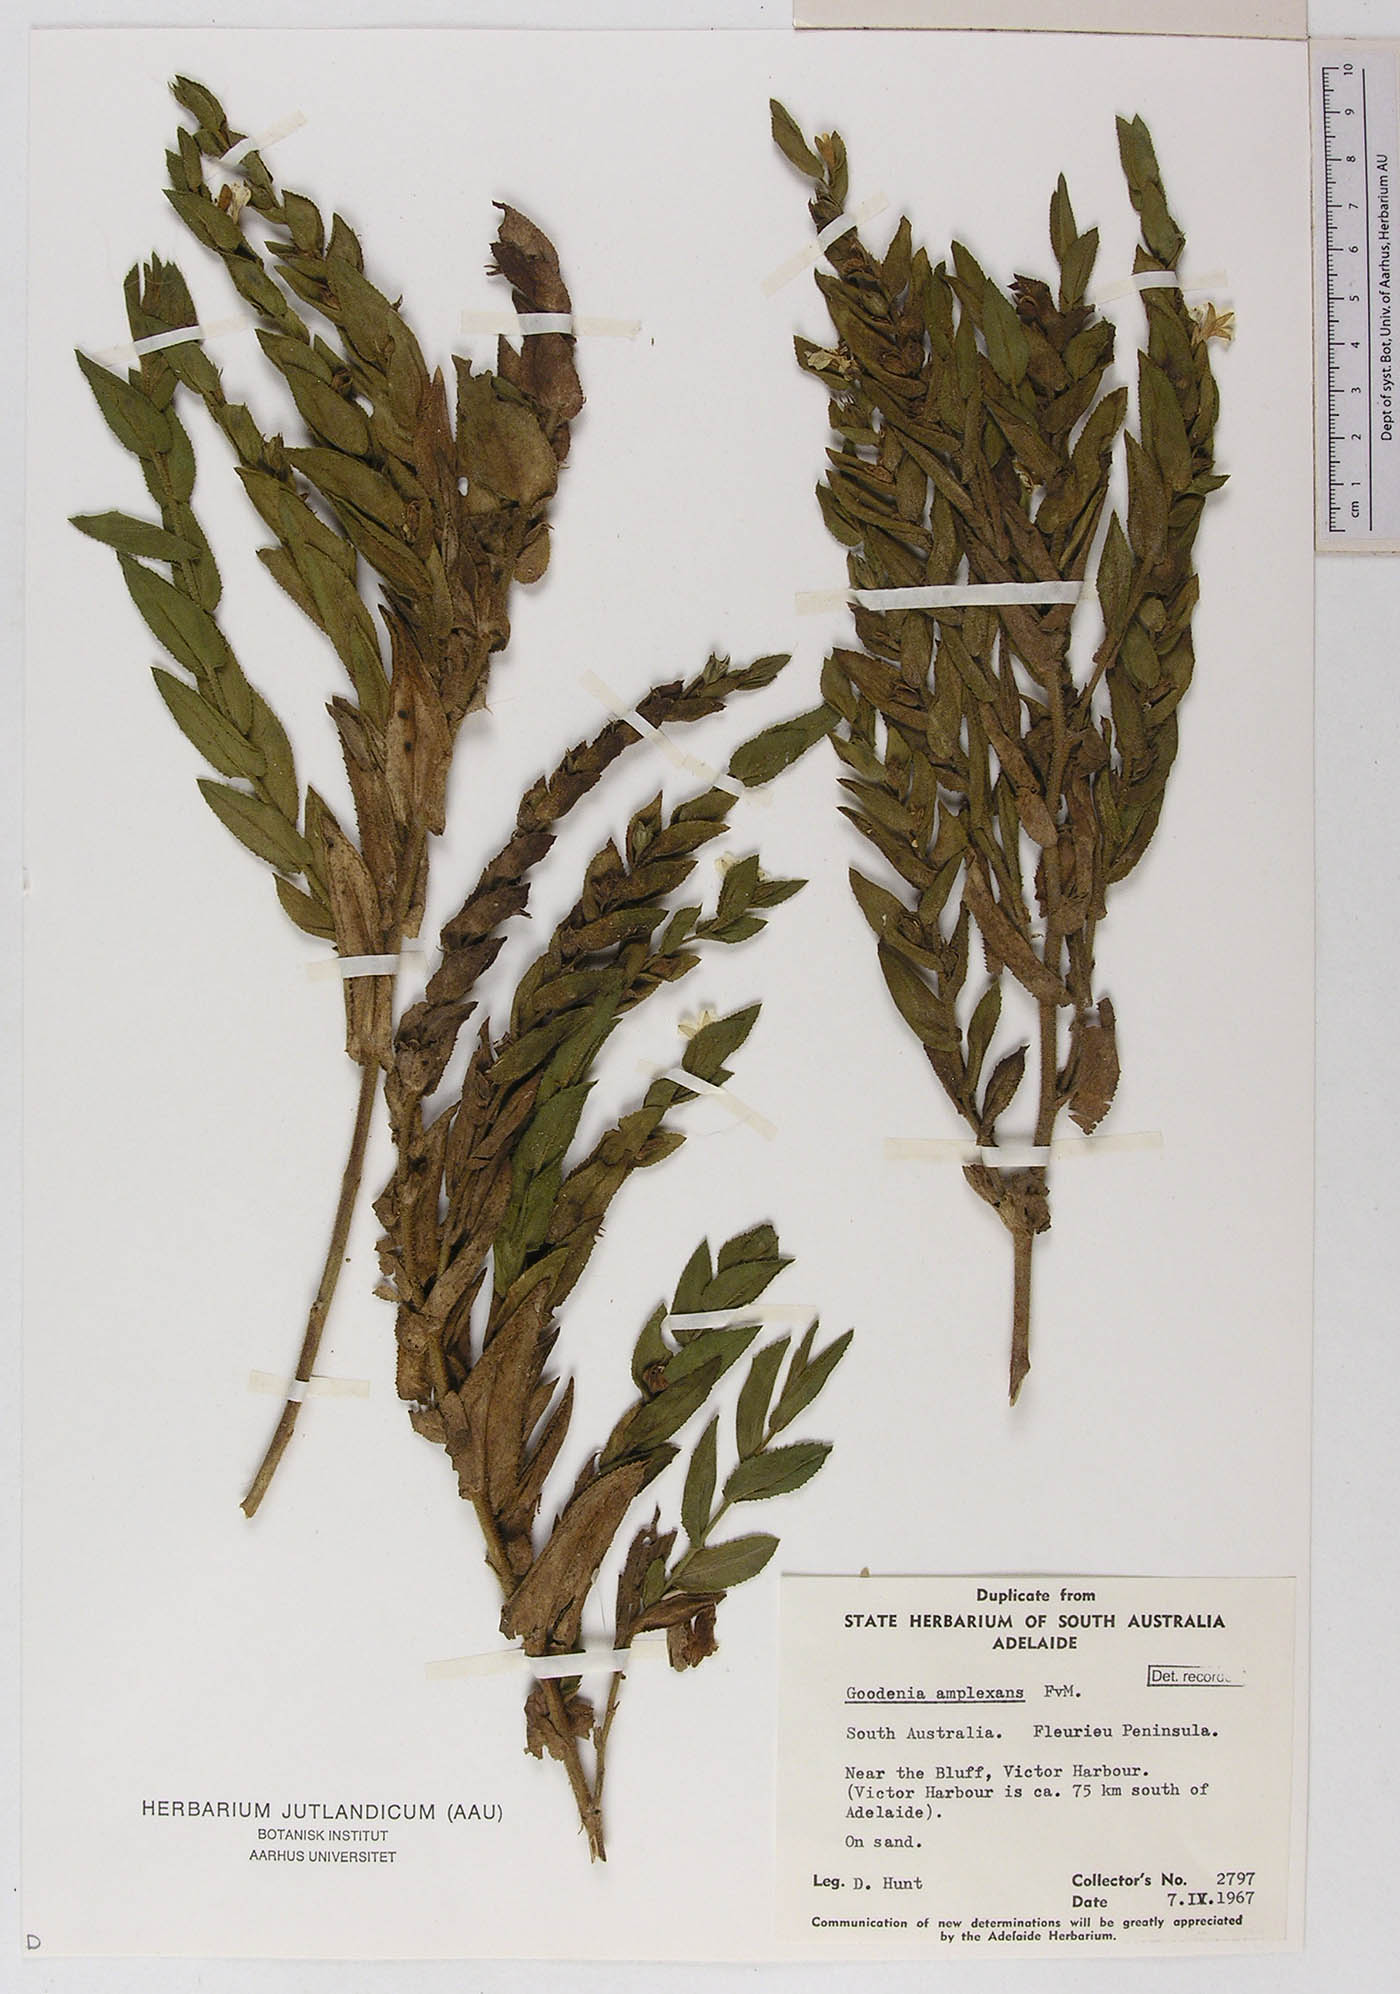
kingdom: Plantae
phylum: Tracheophyta
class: Magnoliopsida
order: Asterales
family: Goodeniaceae
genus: Goodenia
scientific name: Goodenia amplexans
